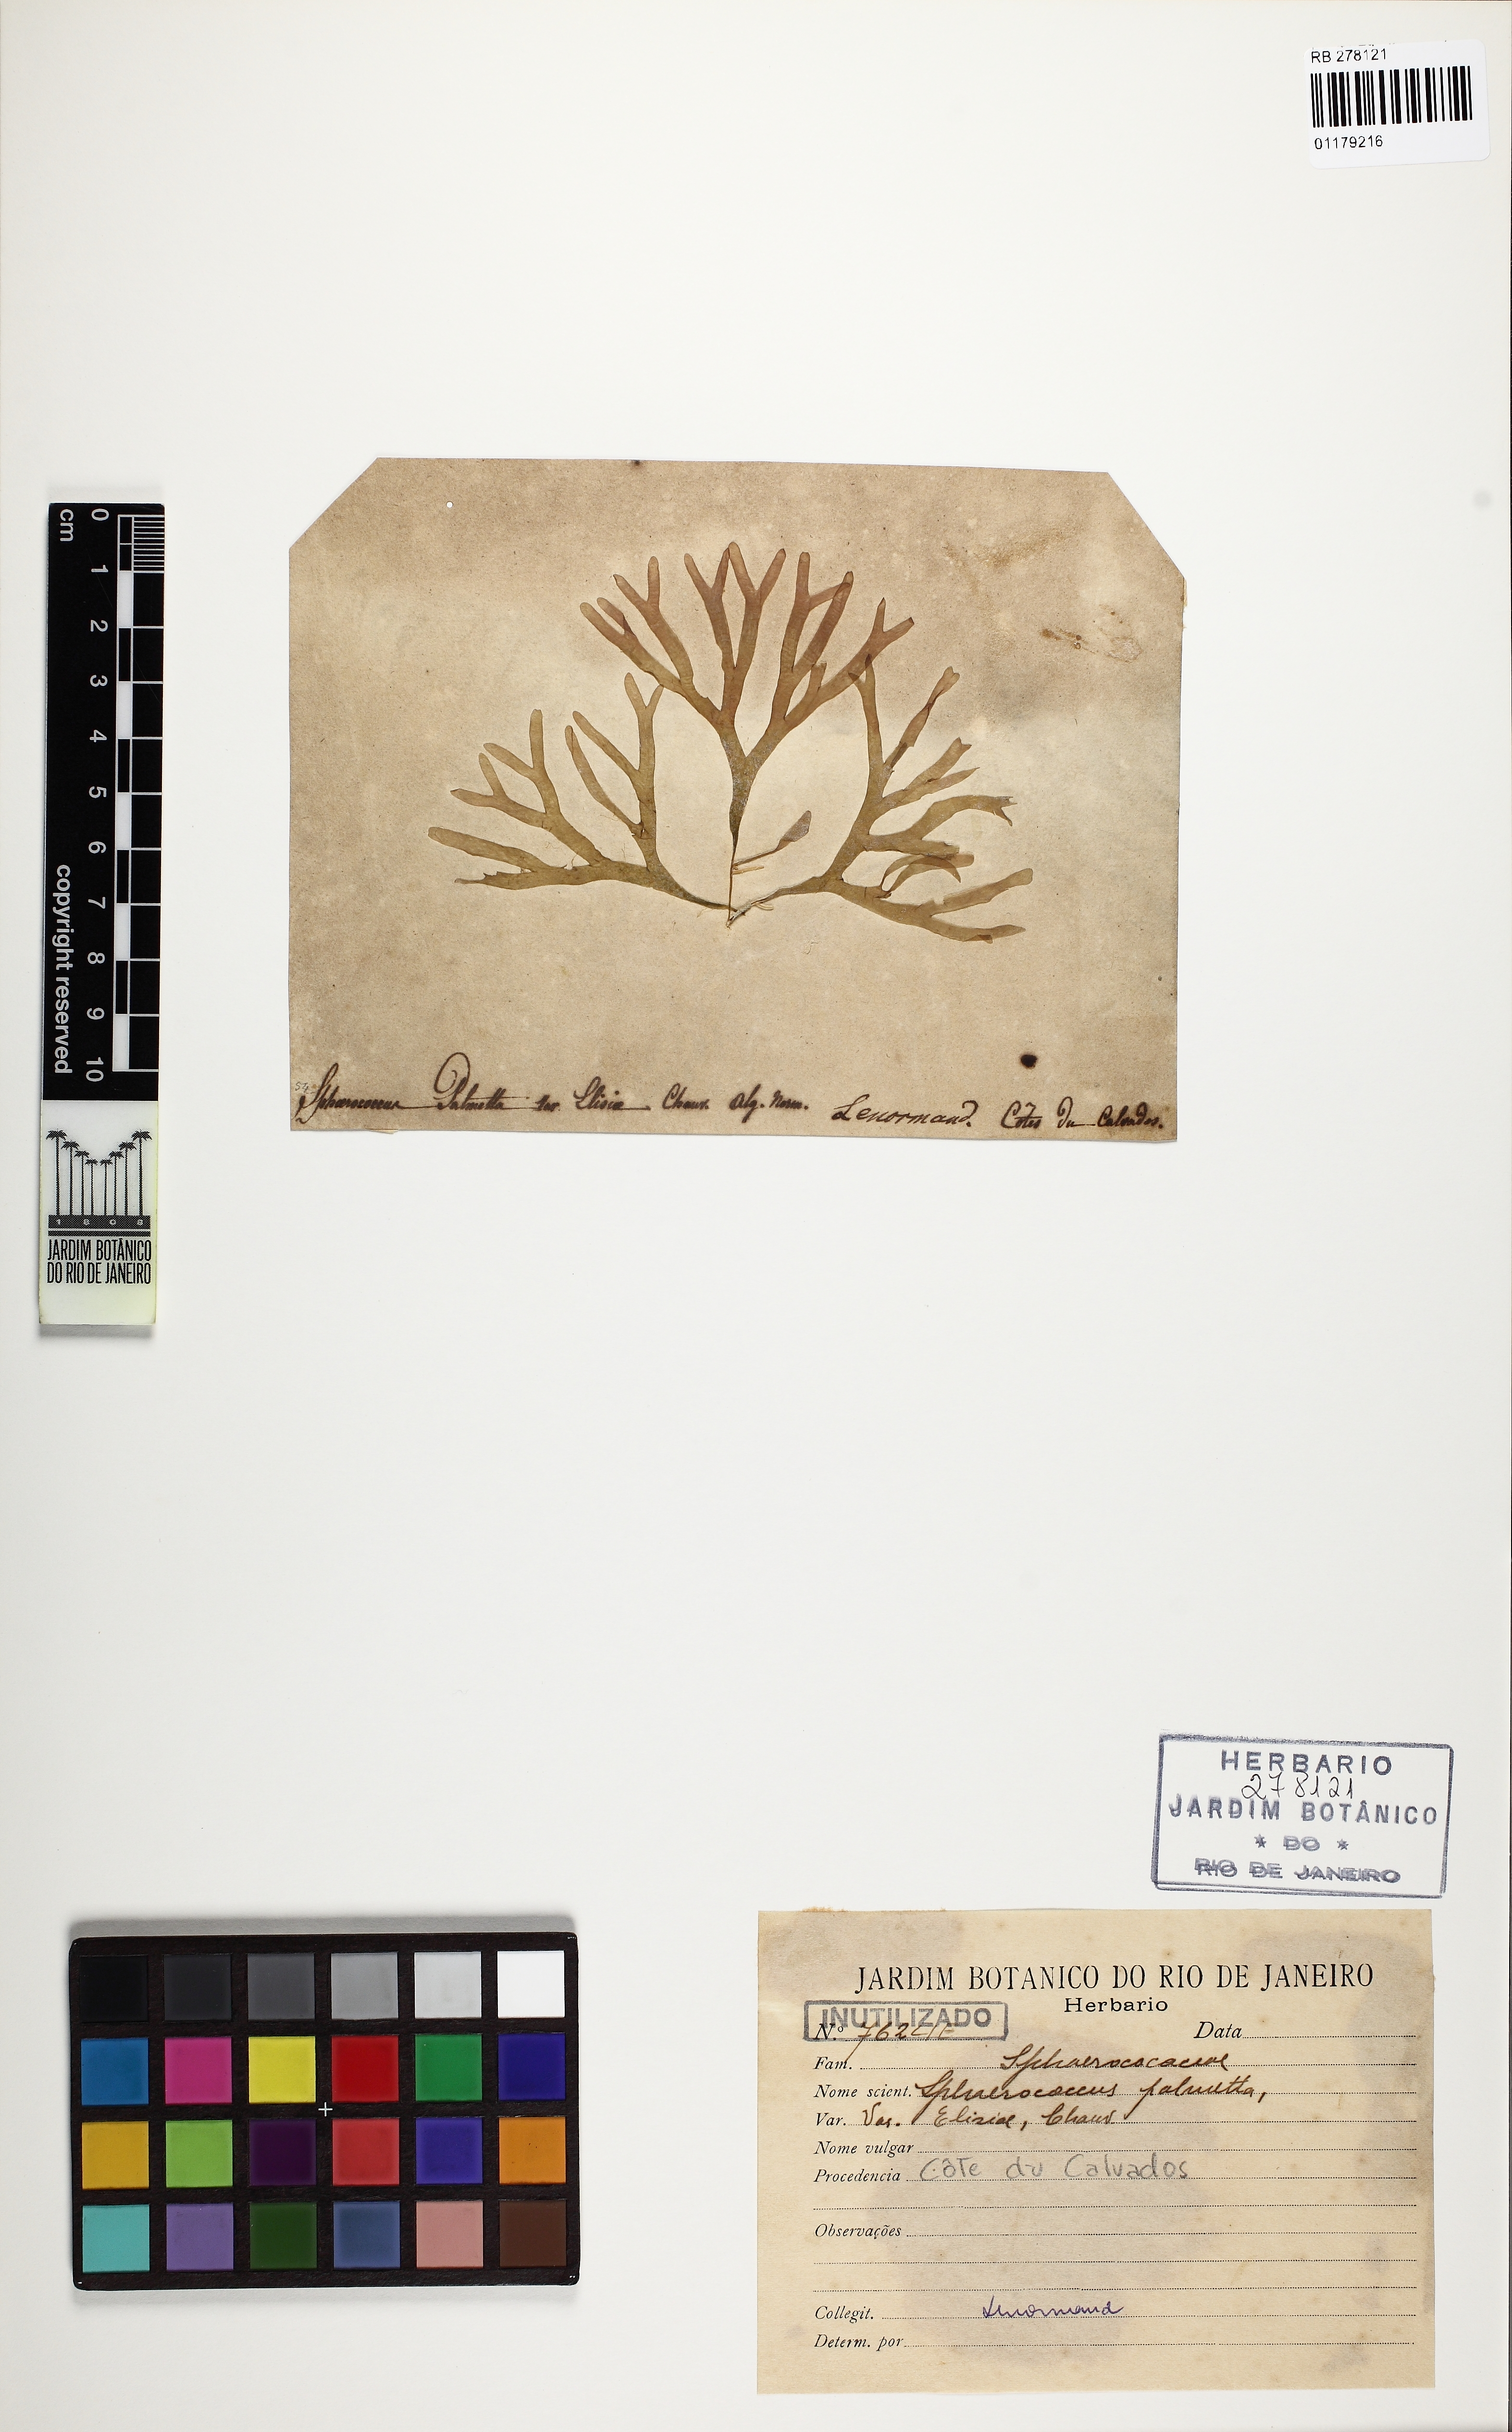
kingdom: Plantae
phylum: Rhodophyta
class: Florideophyceae
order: Rhodymeniales
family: Rhodymeniaceae
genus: Rhodymenia
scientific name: Rhodymenia pseudopalmata
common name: Palmate roseweed
